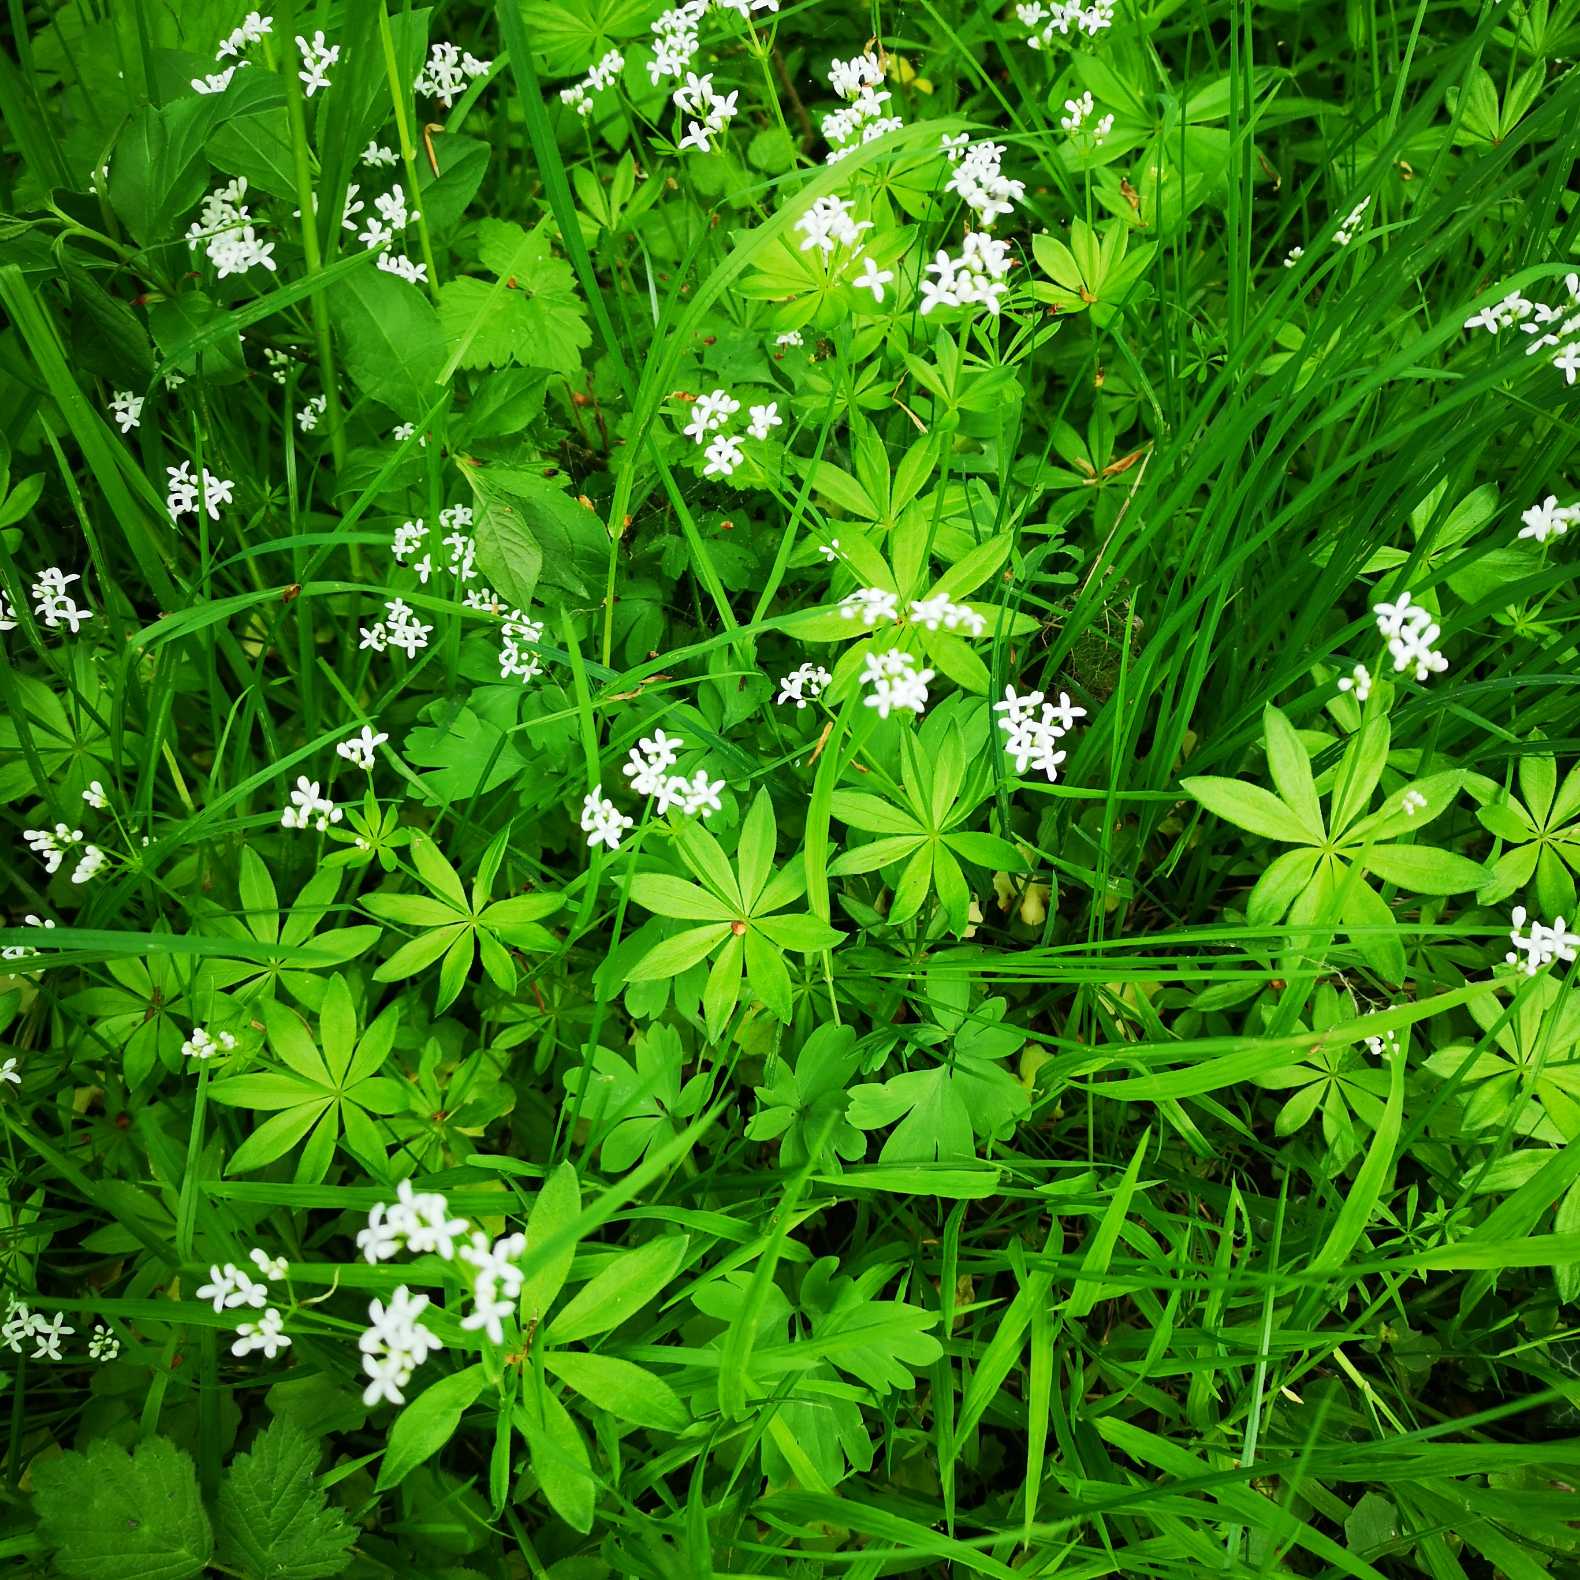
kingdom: Plantae
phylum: Tracheophyta
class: Magnoliopsida
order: Gentianales
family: Rubiaceae
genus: Galium
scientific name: Galium odoratum
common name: Skovmærke
